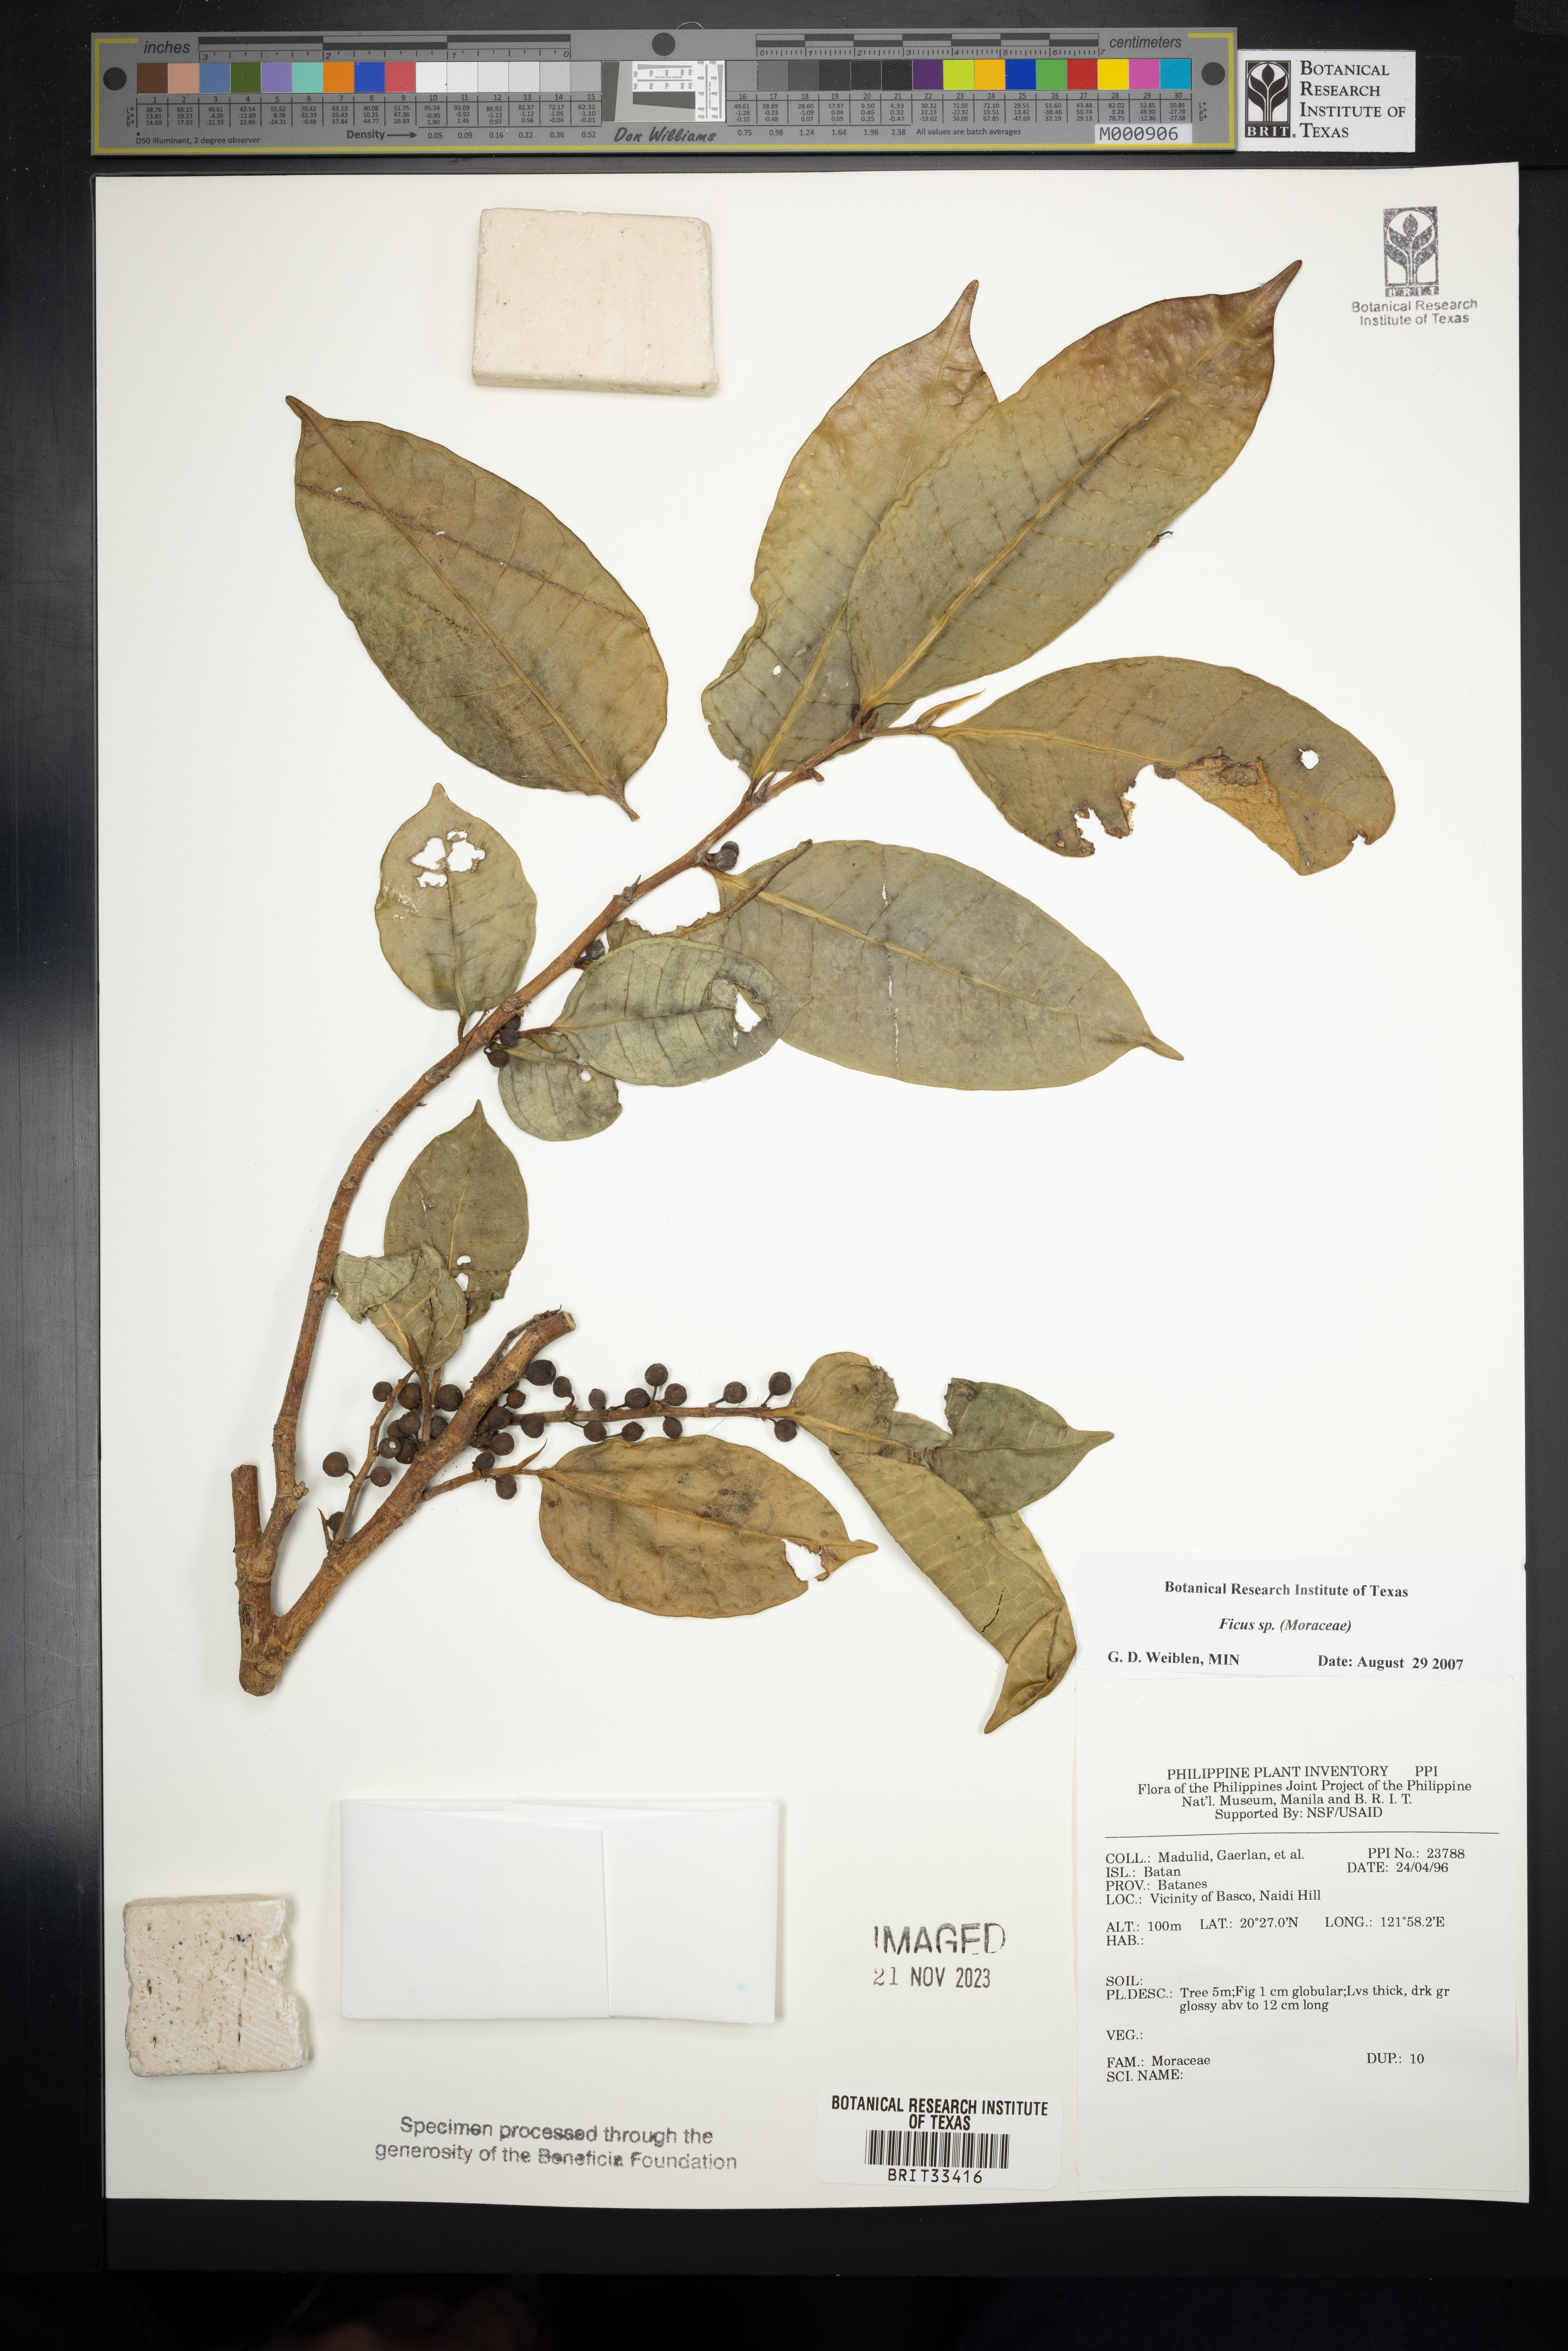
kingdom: Plantae
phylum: Tracheophyta
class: Magnoliopsida
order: Rosales
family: Moraceae
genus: Ficus
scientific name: Ficus
